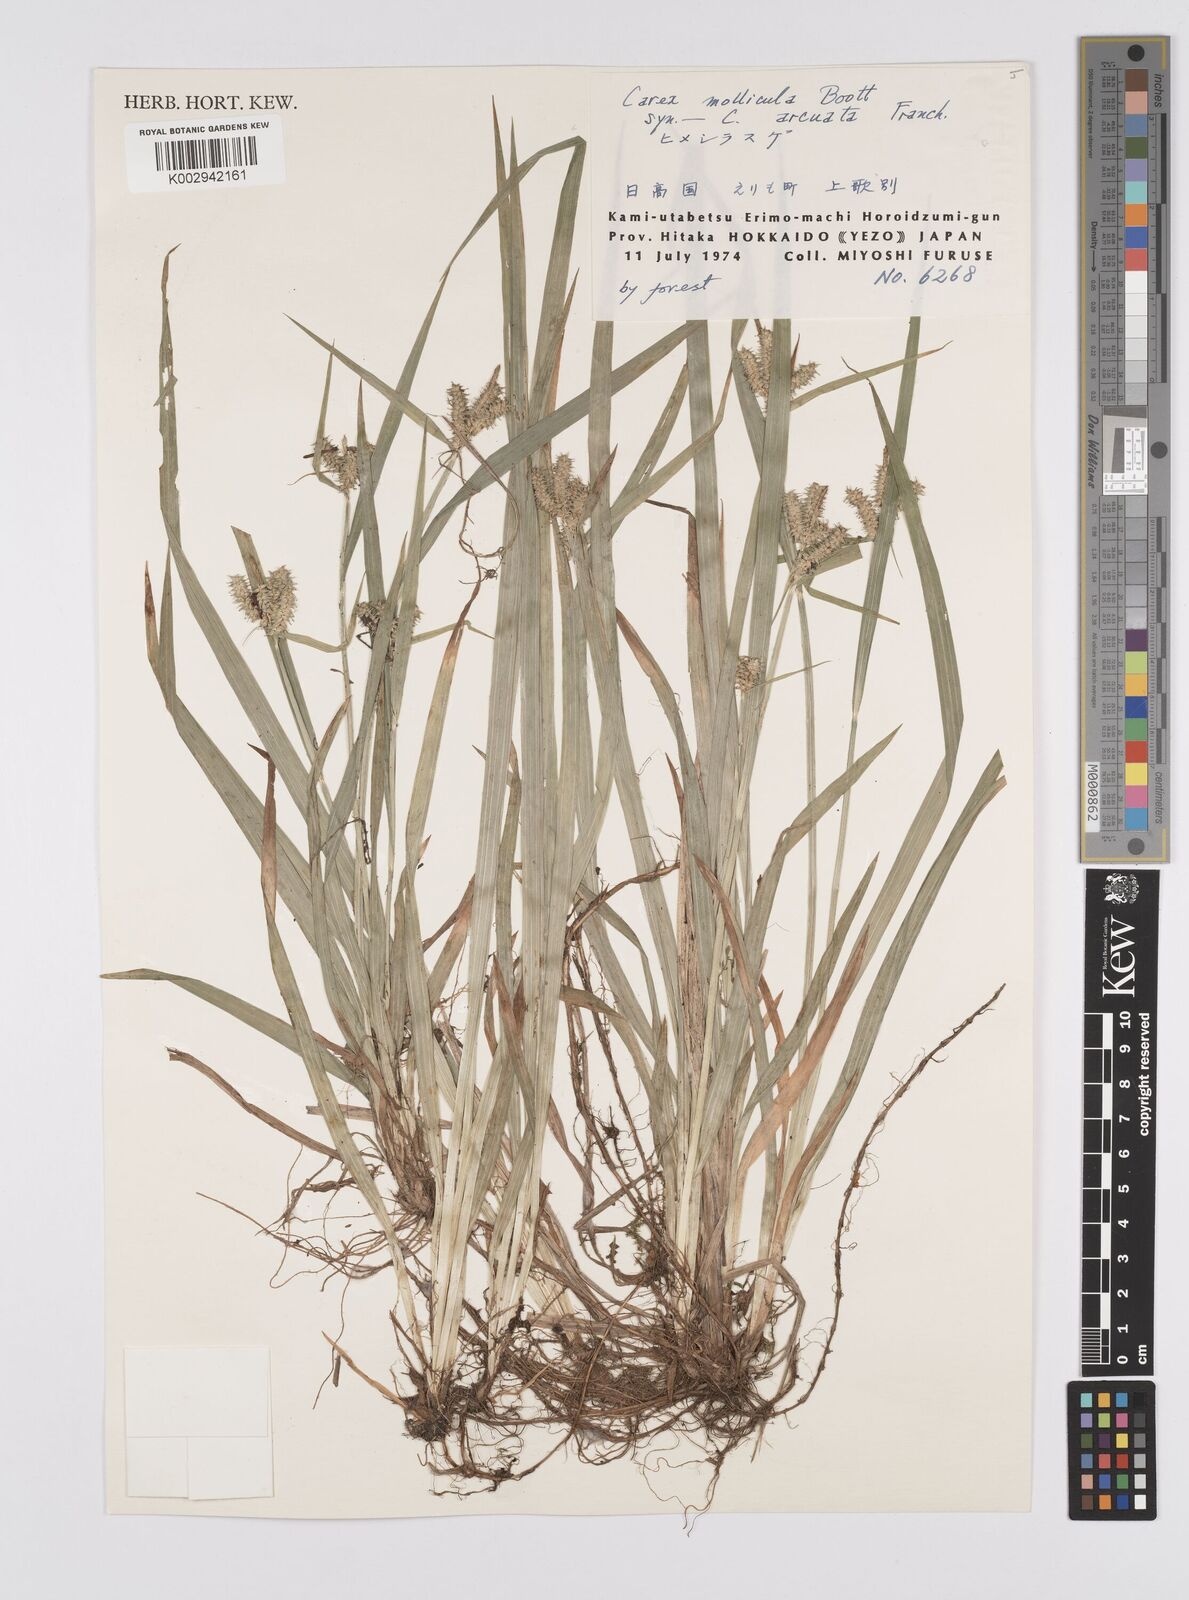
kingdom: Plantae
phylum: Tracheophyta
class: Liliopsida
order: Poales
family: Cyperaceae
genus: Carex
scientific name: Carex mollicula
